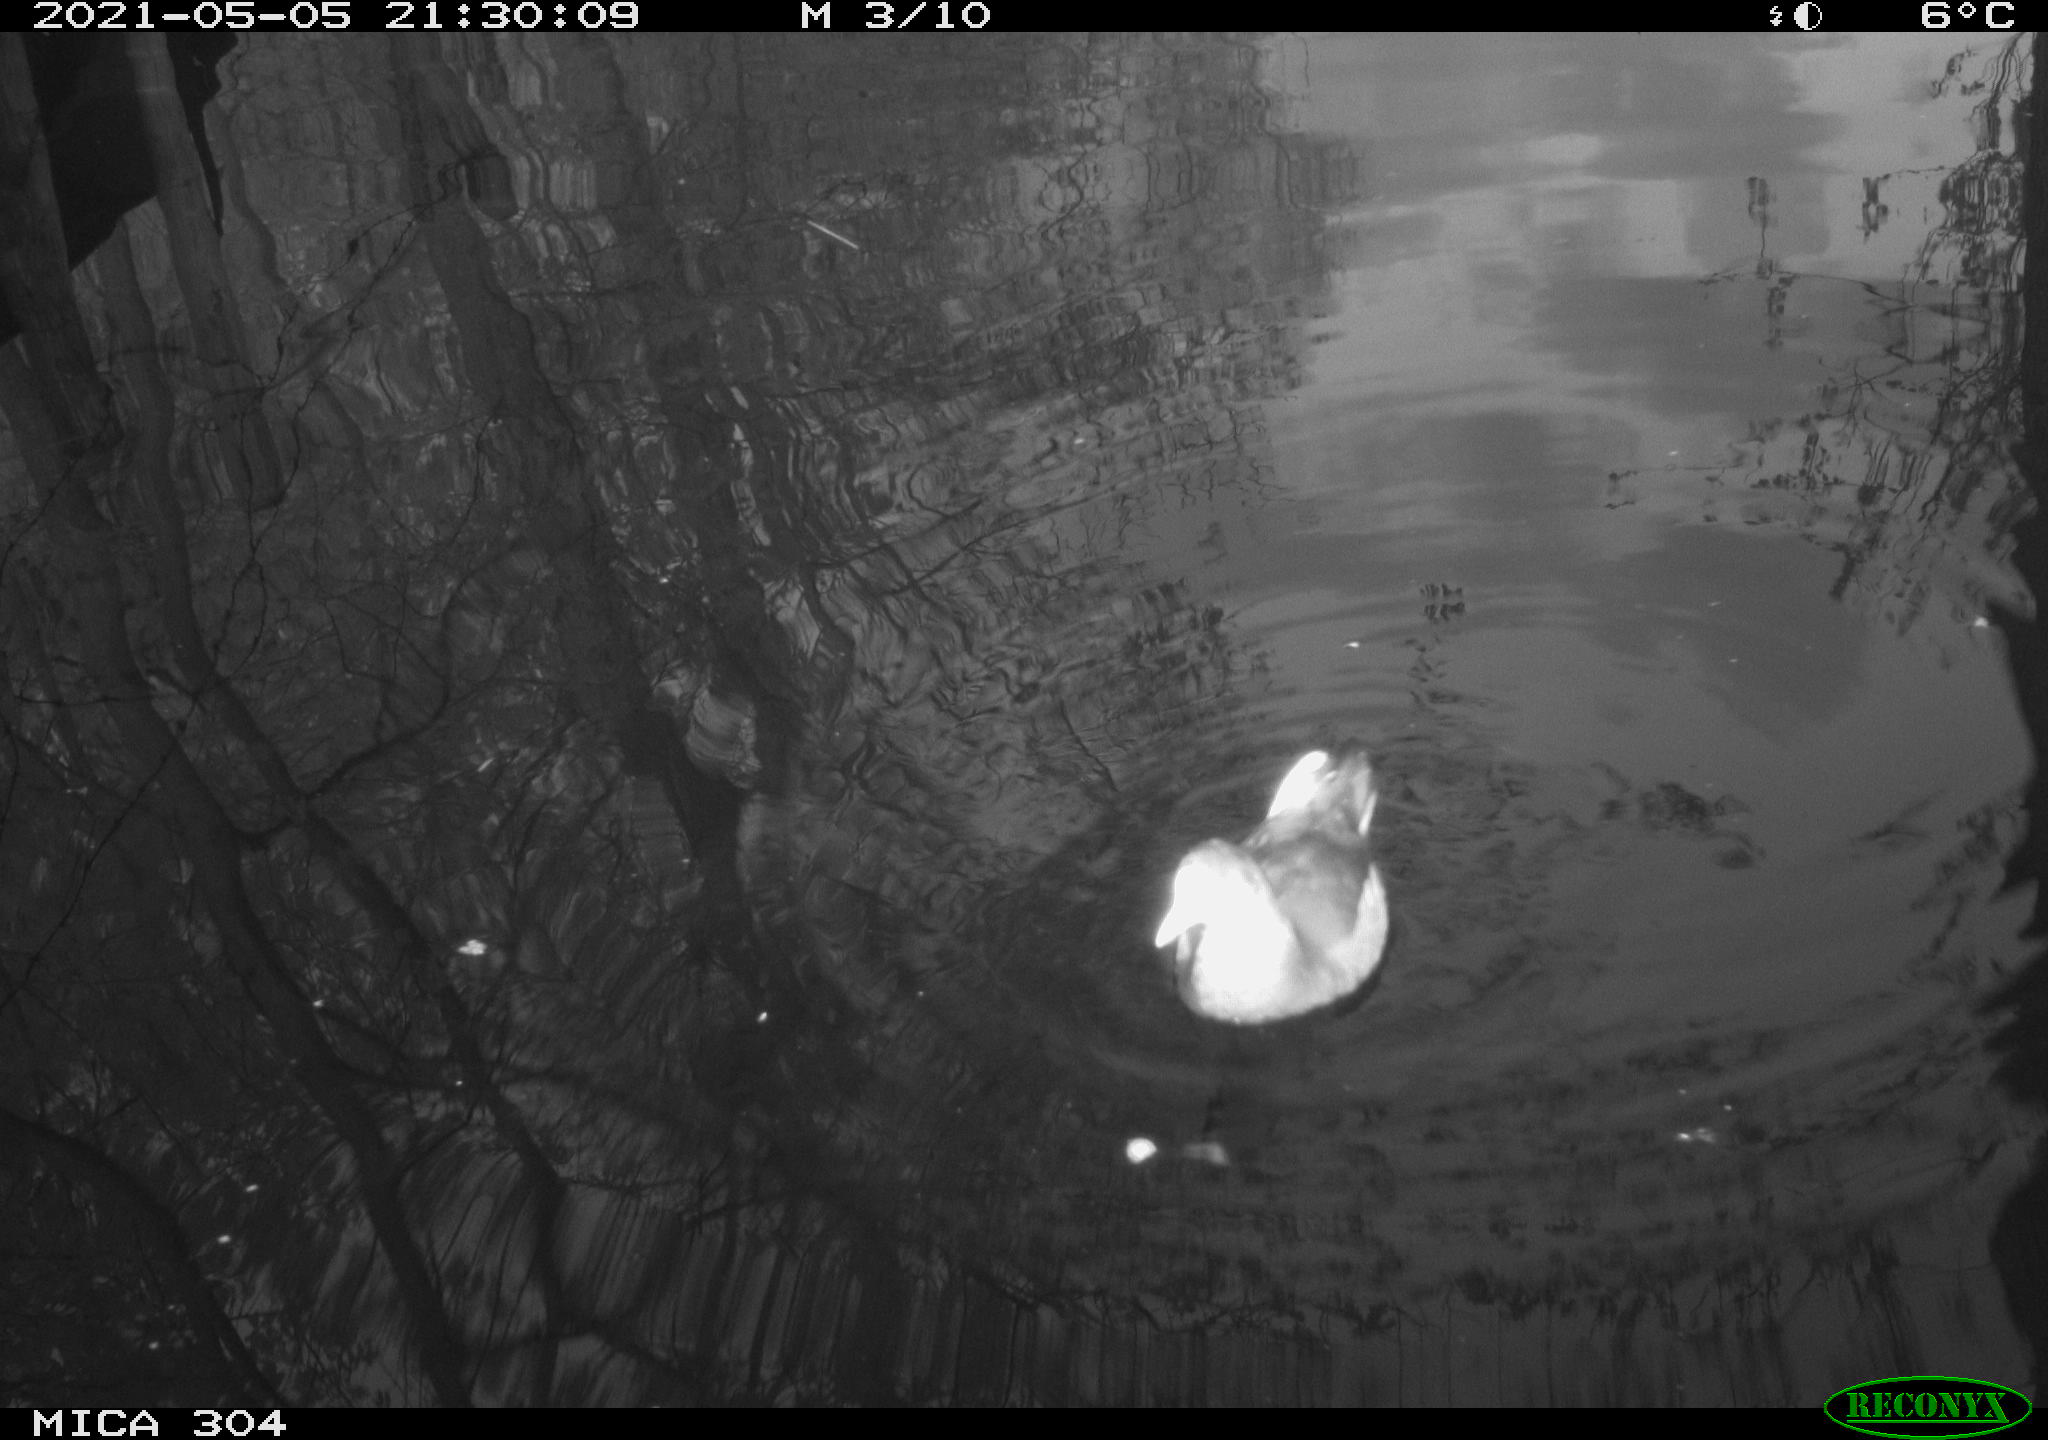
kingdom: Animalia
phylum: Chordata
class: Aves
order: Anseriformes
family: Anatidae
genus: Mareca
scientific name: Mareca strepera
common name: Gadwall
